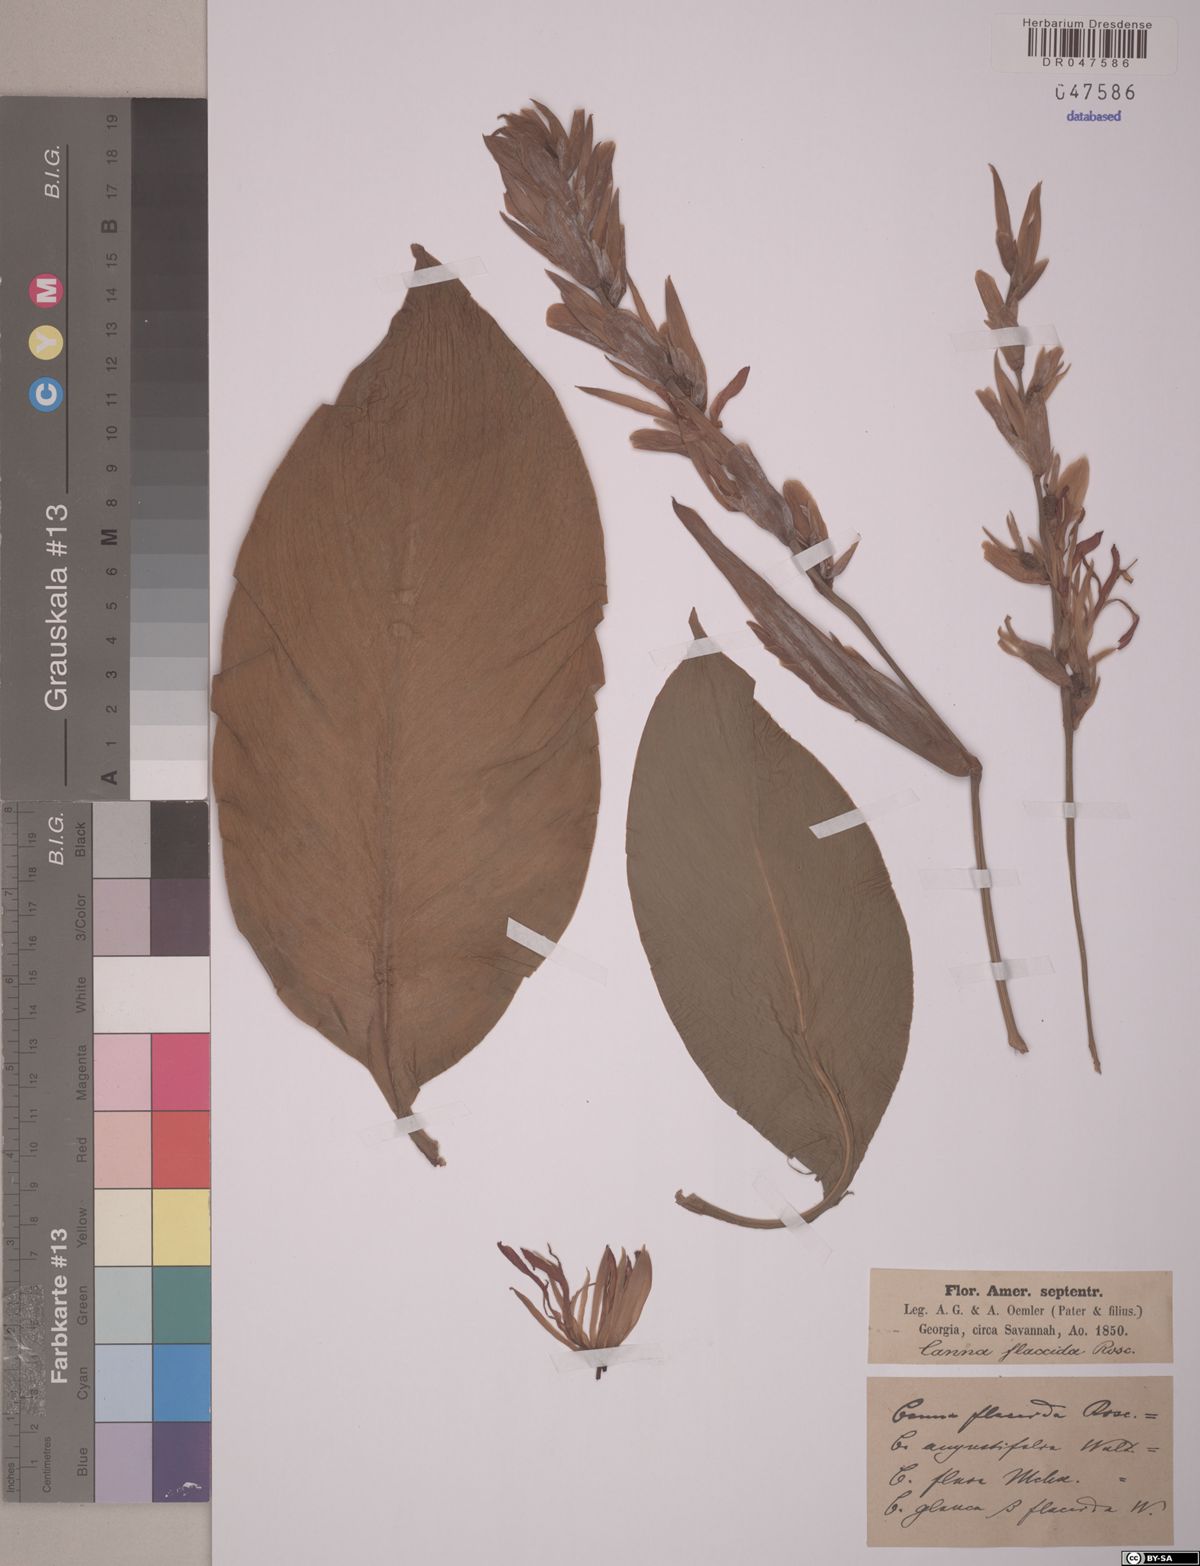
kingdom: Plantae
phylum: Tracheophyta
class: Liliopsida
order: Zingiberales
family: Cannaceae
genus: Canna
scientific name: Canna flaccida
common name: Bandana-of-the-everglades
